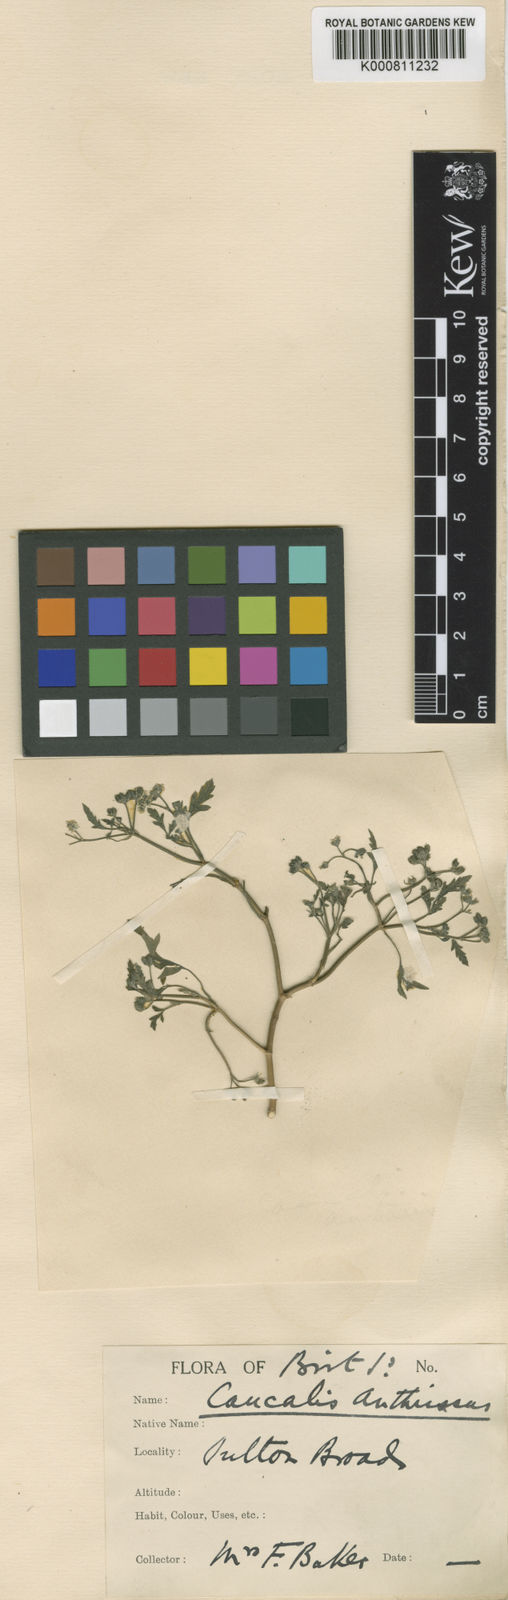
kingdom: Plantae
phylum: Tracheophyta
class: Magnoliopsida
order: Apiales
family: Apiaceae
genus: Torilis
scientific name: Torilis arvensis
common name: Spreading hedge-parsley
